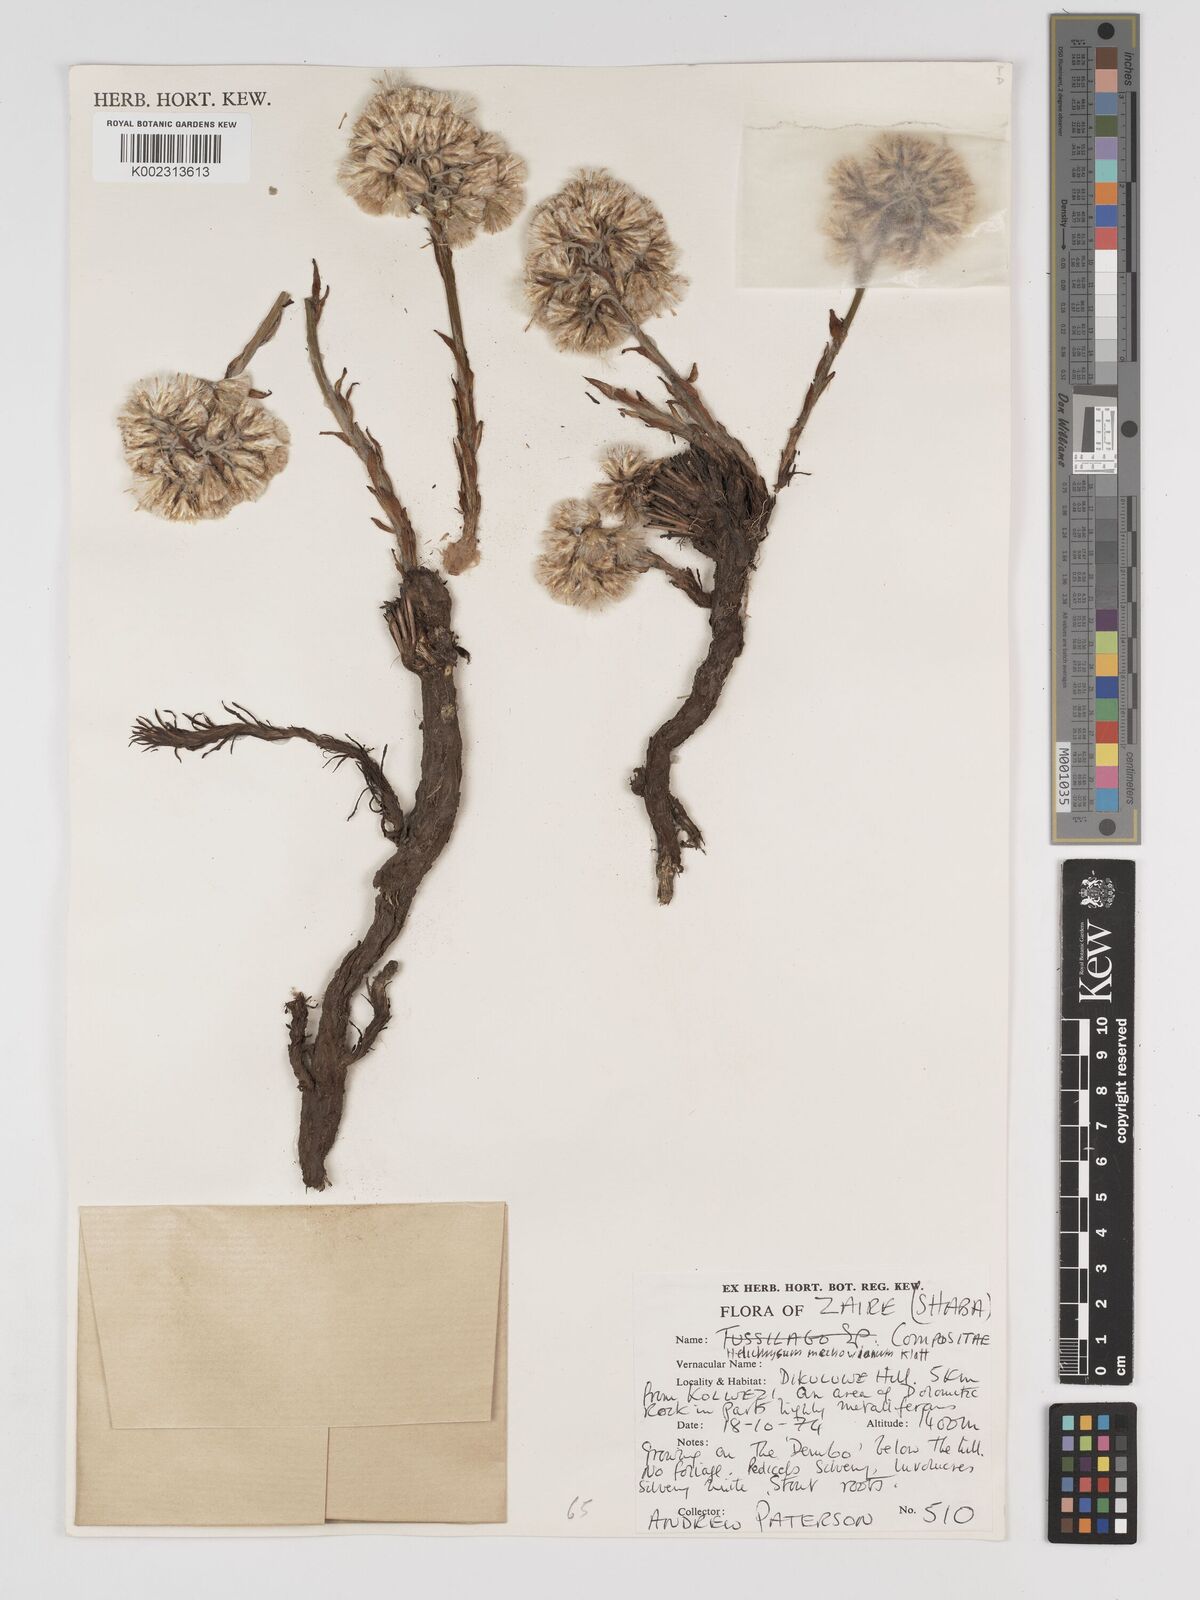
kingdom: Plantae
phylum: Tracheophyta
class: Magnoliopsida
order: Asterales
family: Asteraceae
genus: Helichrysum
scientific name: Helichrysum duvigneaudii
